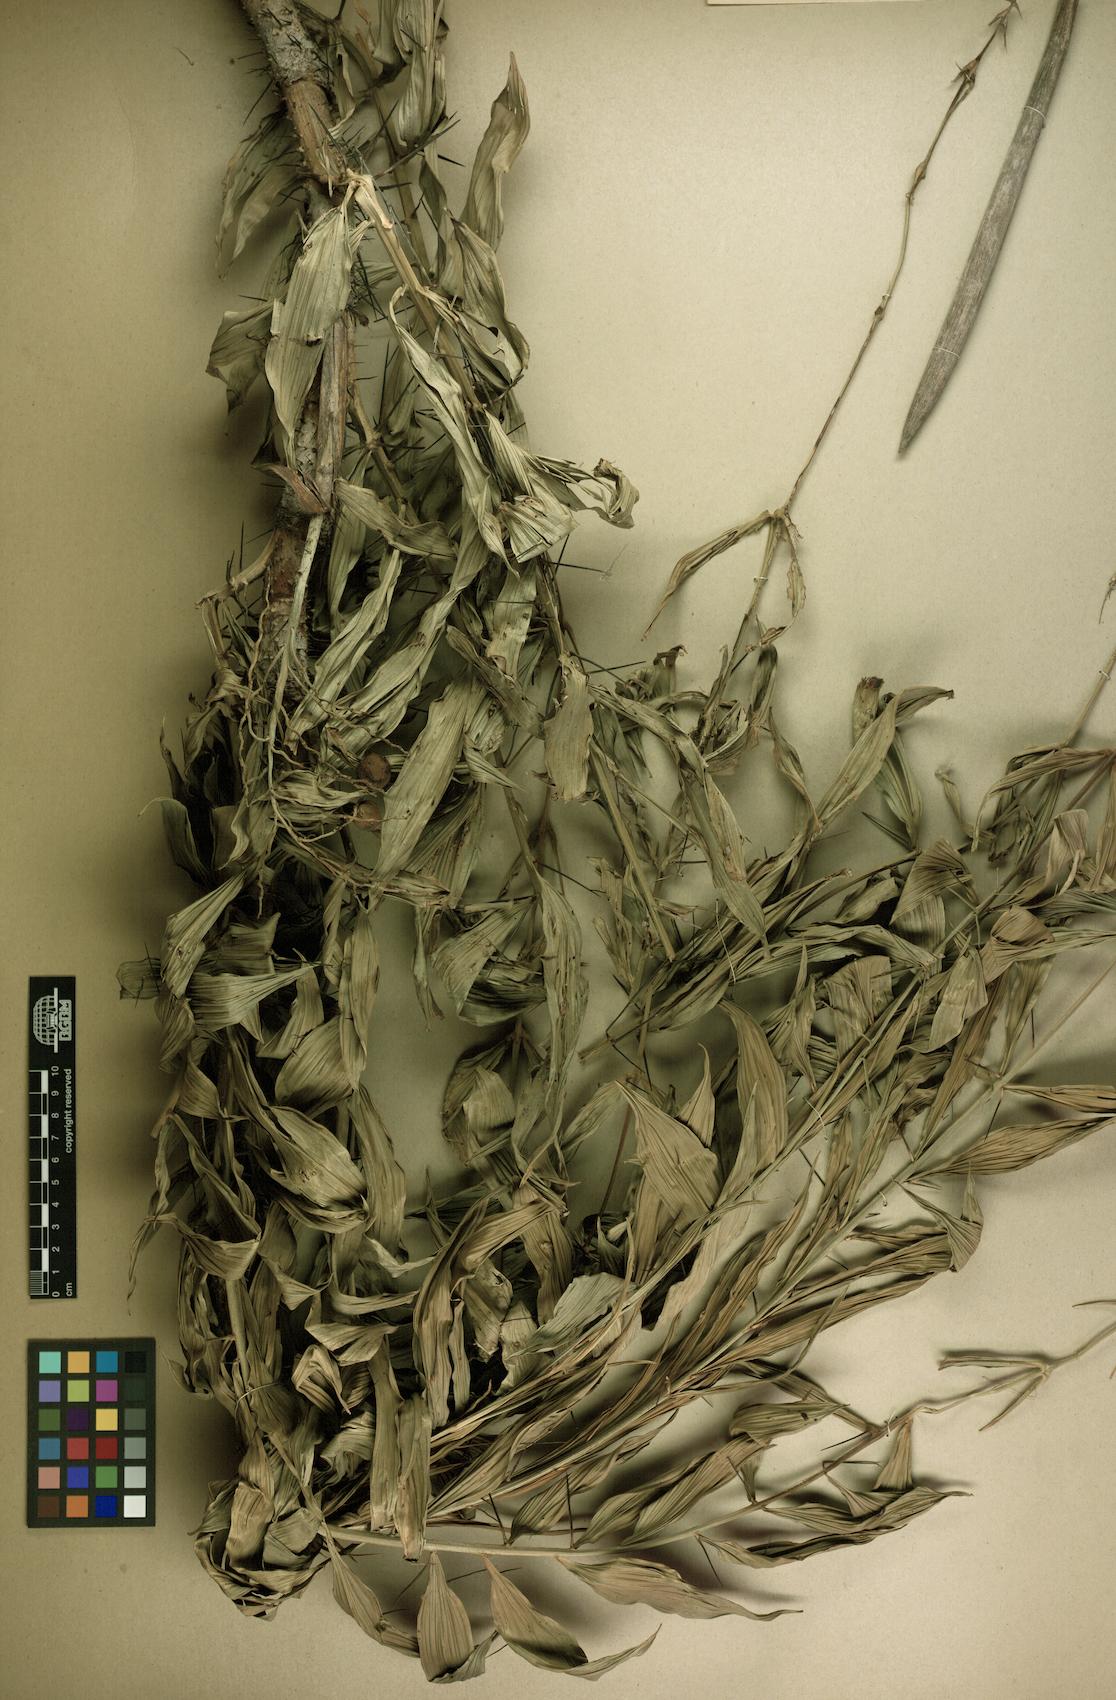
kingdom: Plantae
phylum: Tracheophyta
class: Liliopsida
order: Arecales
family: Arecaceae
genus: Desmoncus
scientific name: Desmoncus orthacanthos
